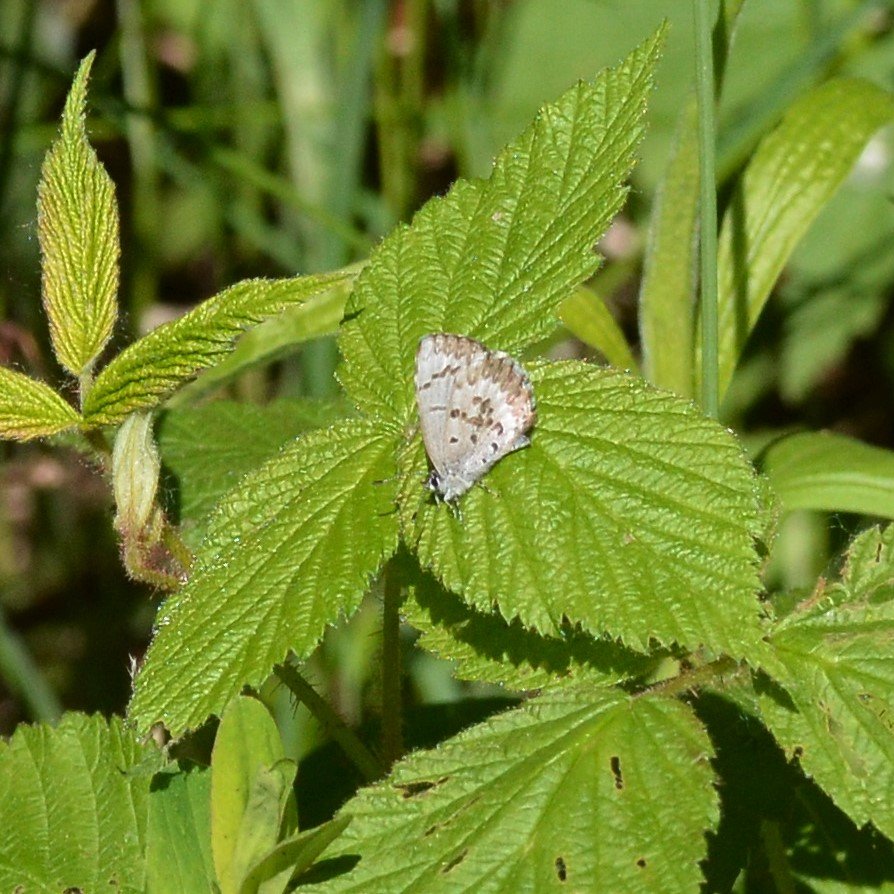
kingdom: Animalia
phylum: Arthropoda
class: Insecta
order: Lepidoptera
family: Lycaenidae
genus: Celastrina
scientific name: Celastrina lucia
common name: Northern Spring Azure
